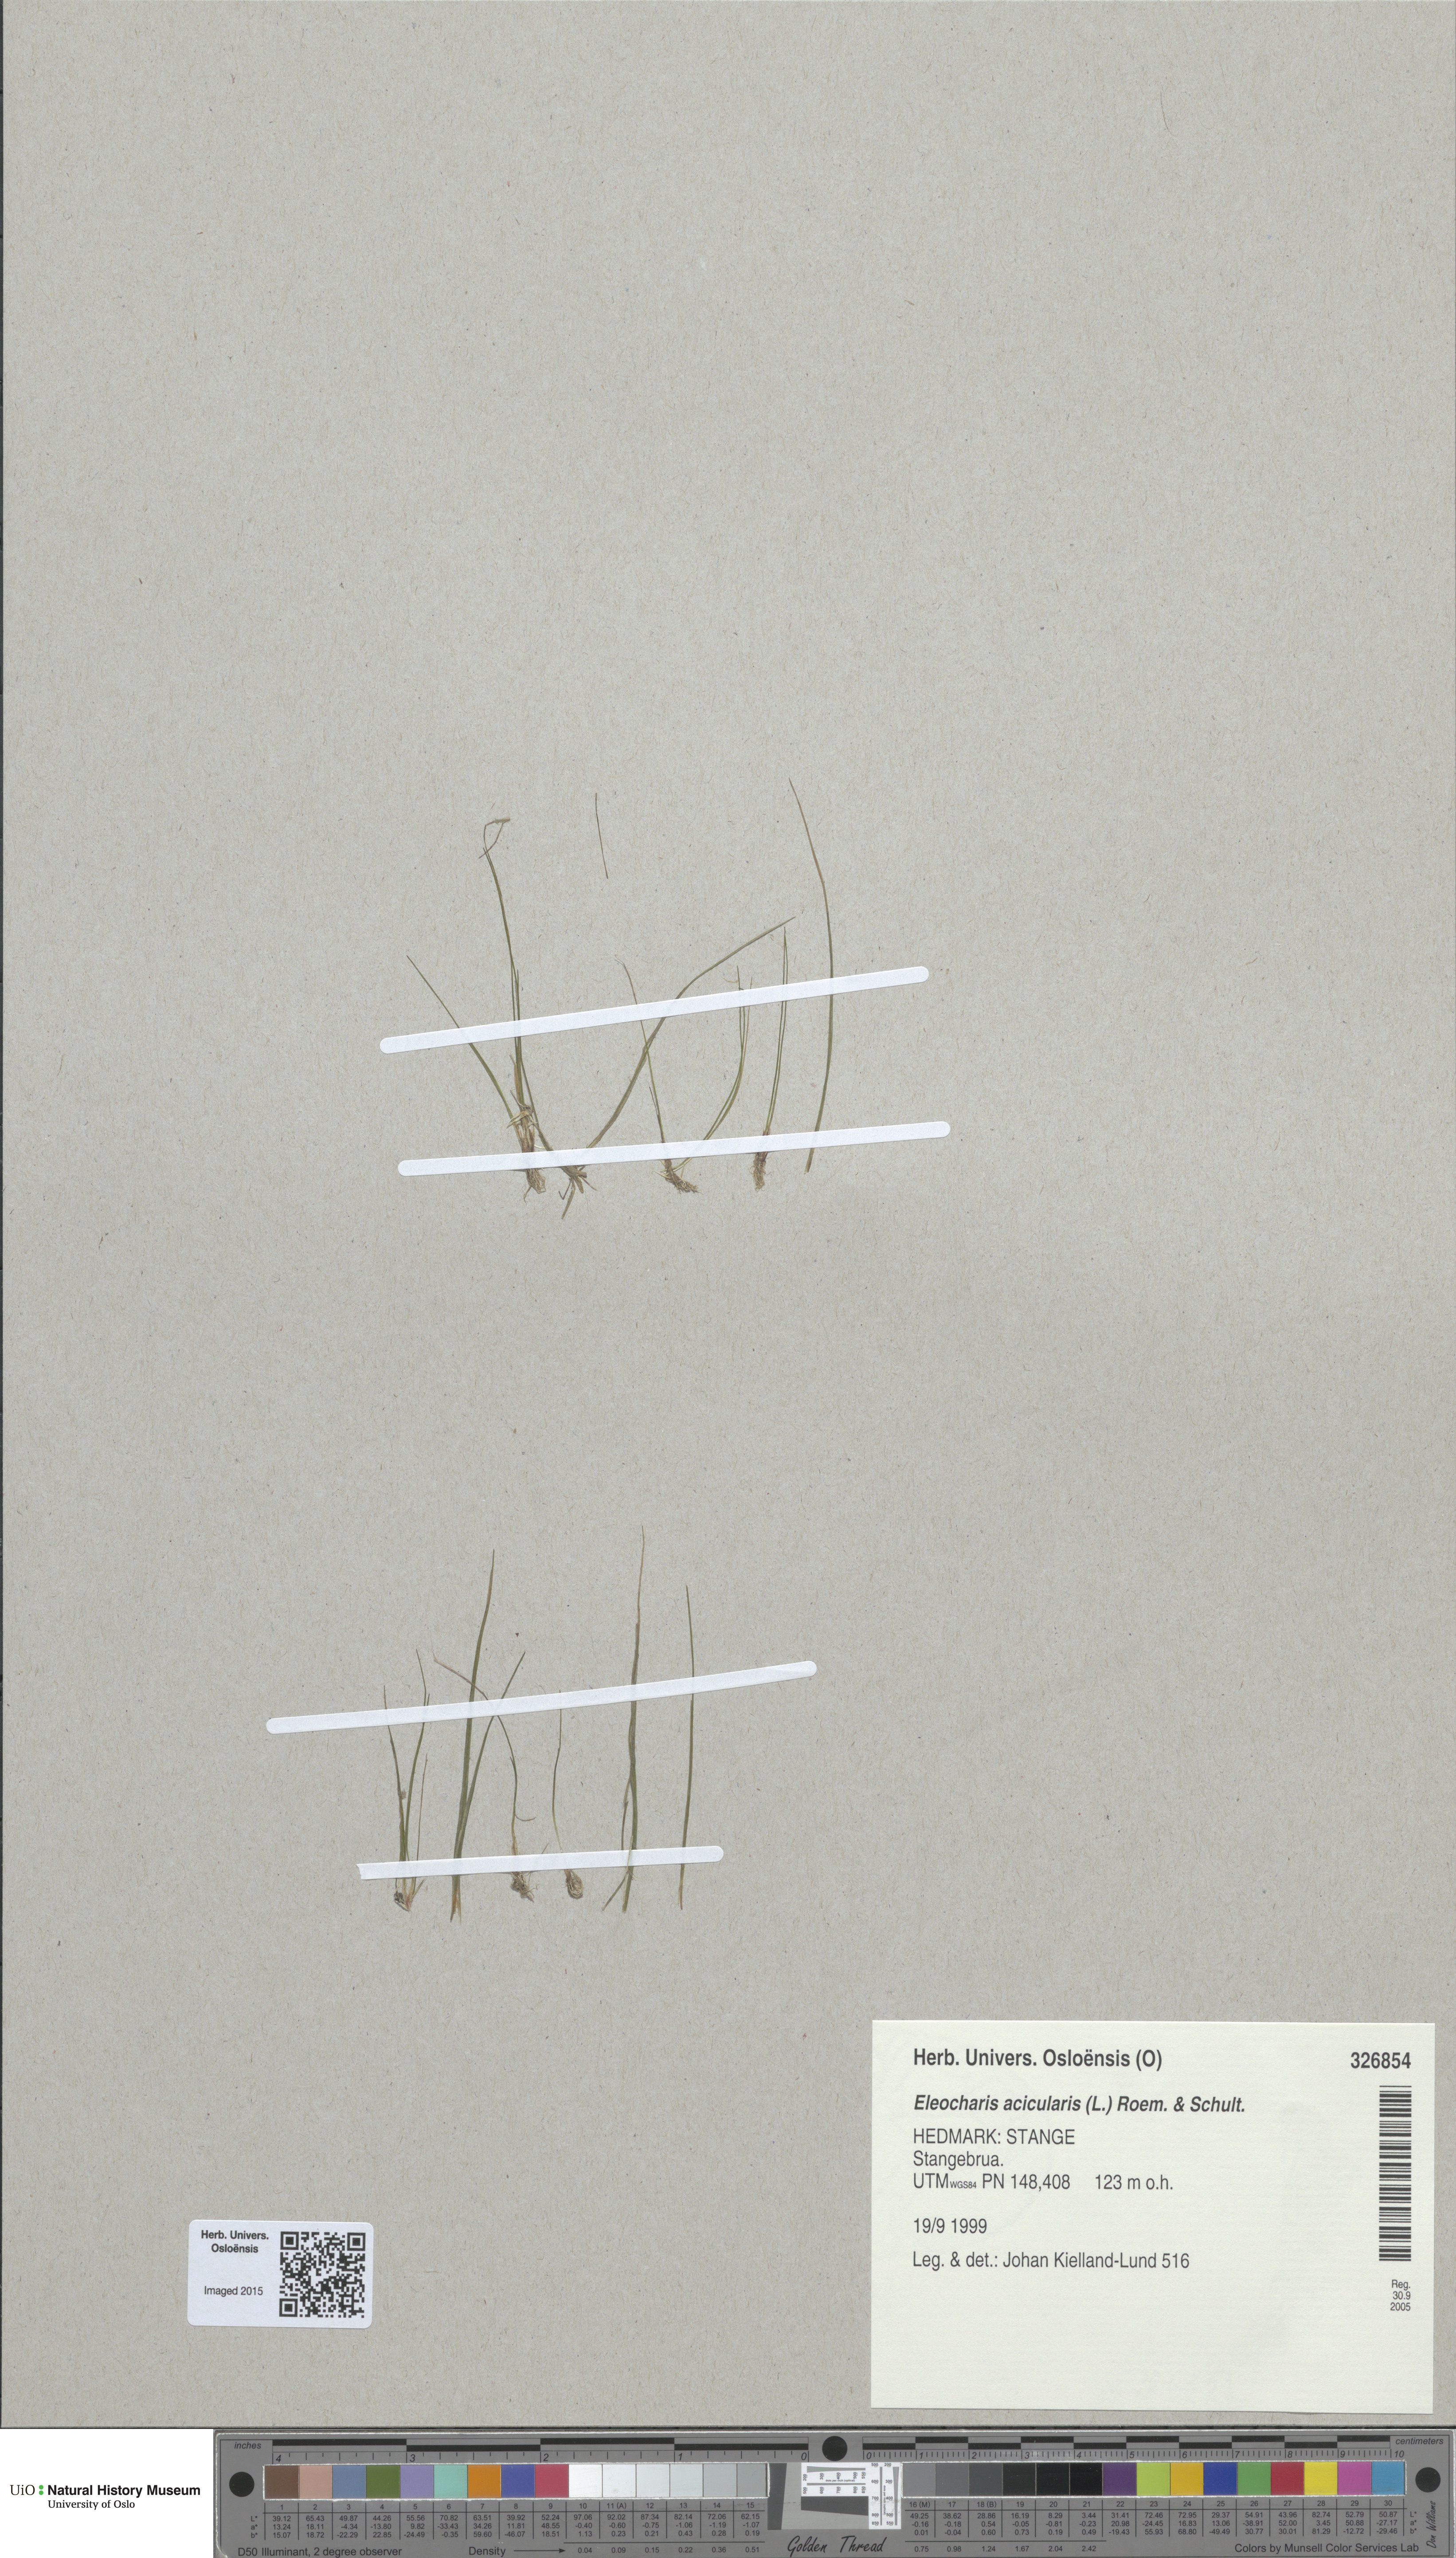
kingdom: Plantae
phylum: Tracheophyta
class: Liliopsida
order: Poales
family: Cyperaceae
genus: Eleocharis
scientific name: Eleocharis acicularis
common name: Needle spike-rush
